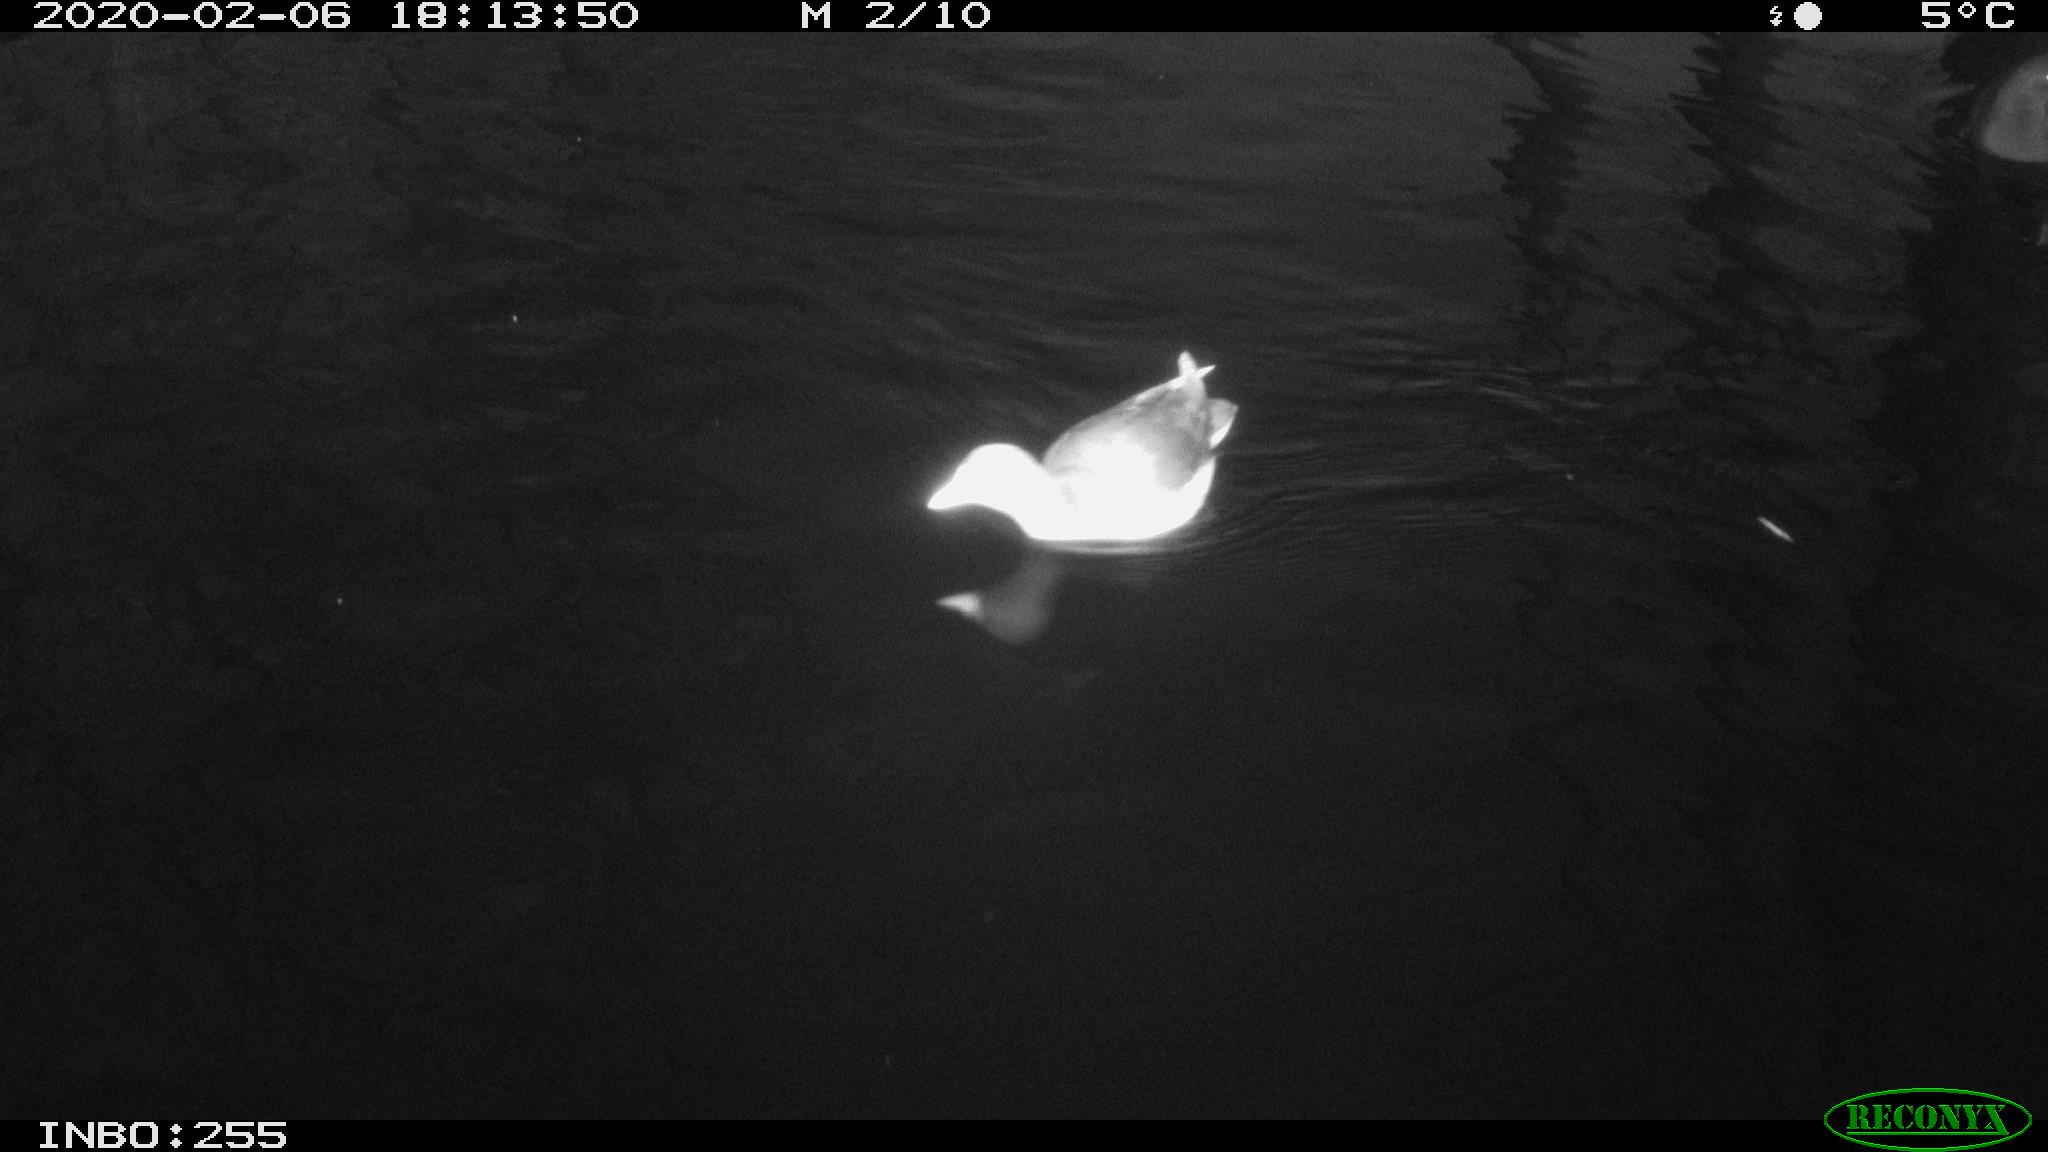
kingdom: Animalia
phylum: Chordata
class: Aves
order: Gruiformes
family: Rallidae
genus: Fulica
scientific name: Fulica atra
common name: Eurasian coot
